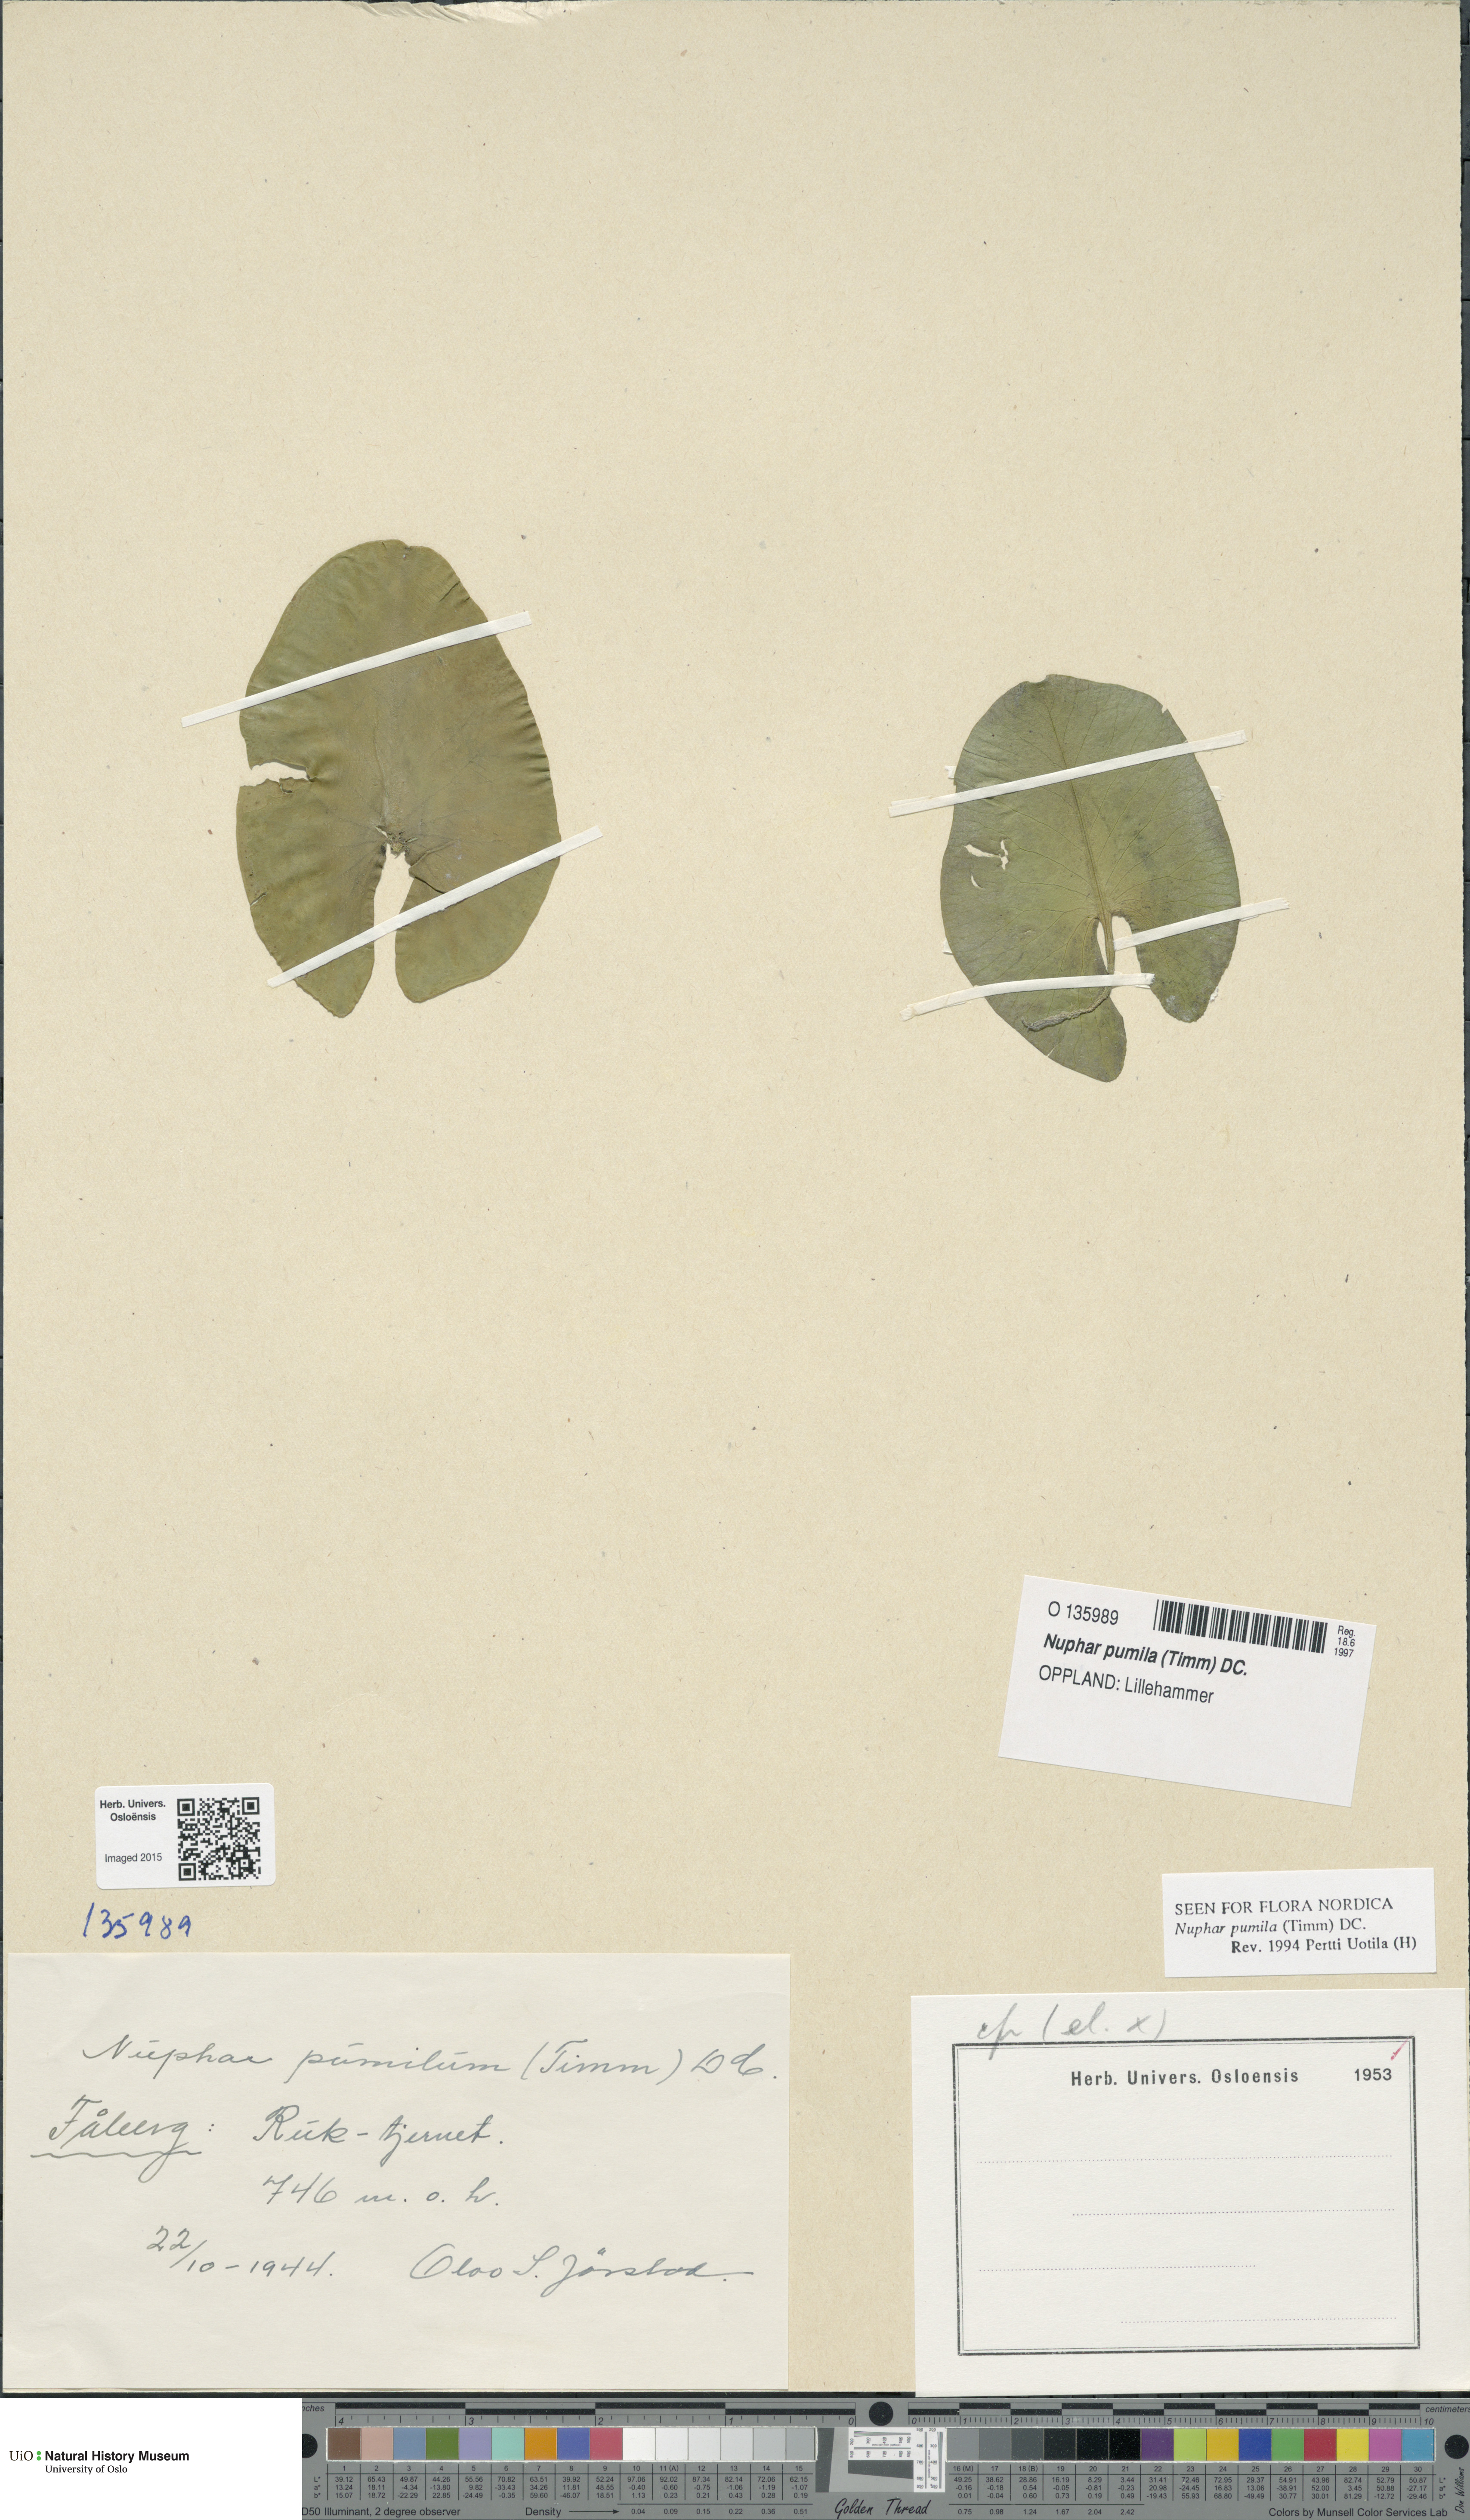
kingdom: Plantae
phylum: Tracheophyta
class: Magnoliopsida
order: Nymphaeales
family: Nymphaeaceae
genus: Nuphar
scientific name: Nuphar pumila
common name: Least water-lily
